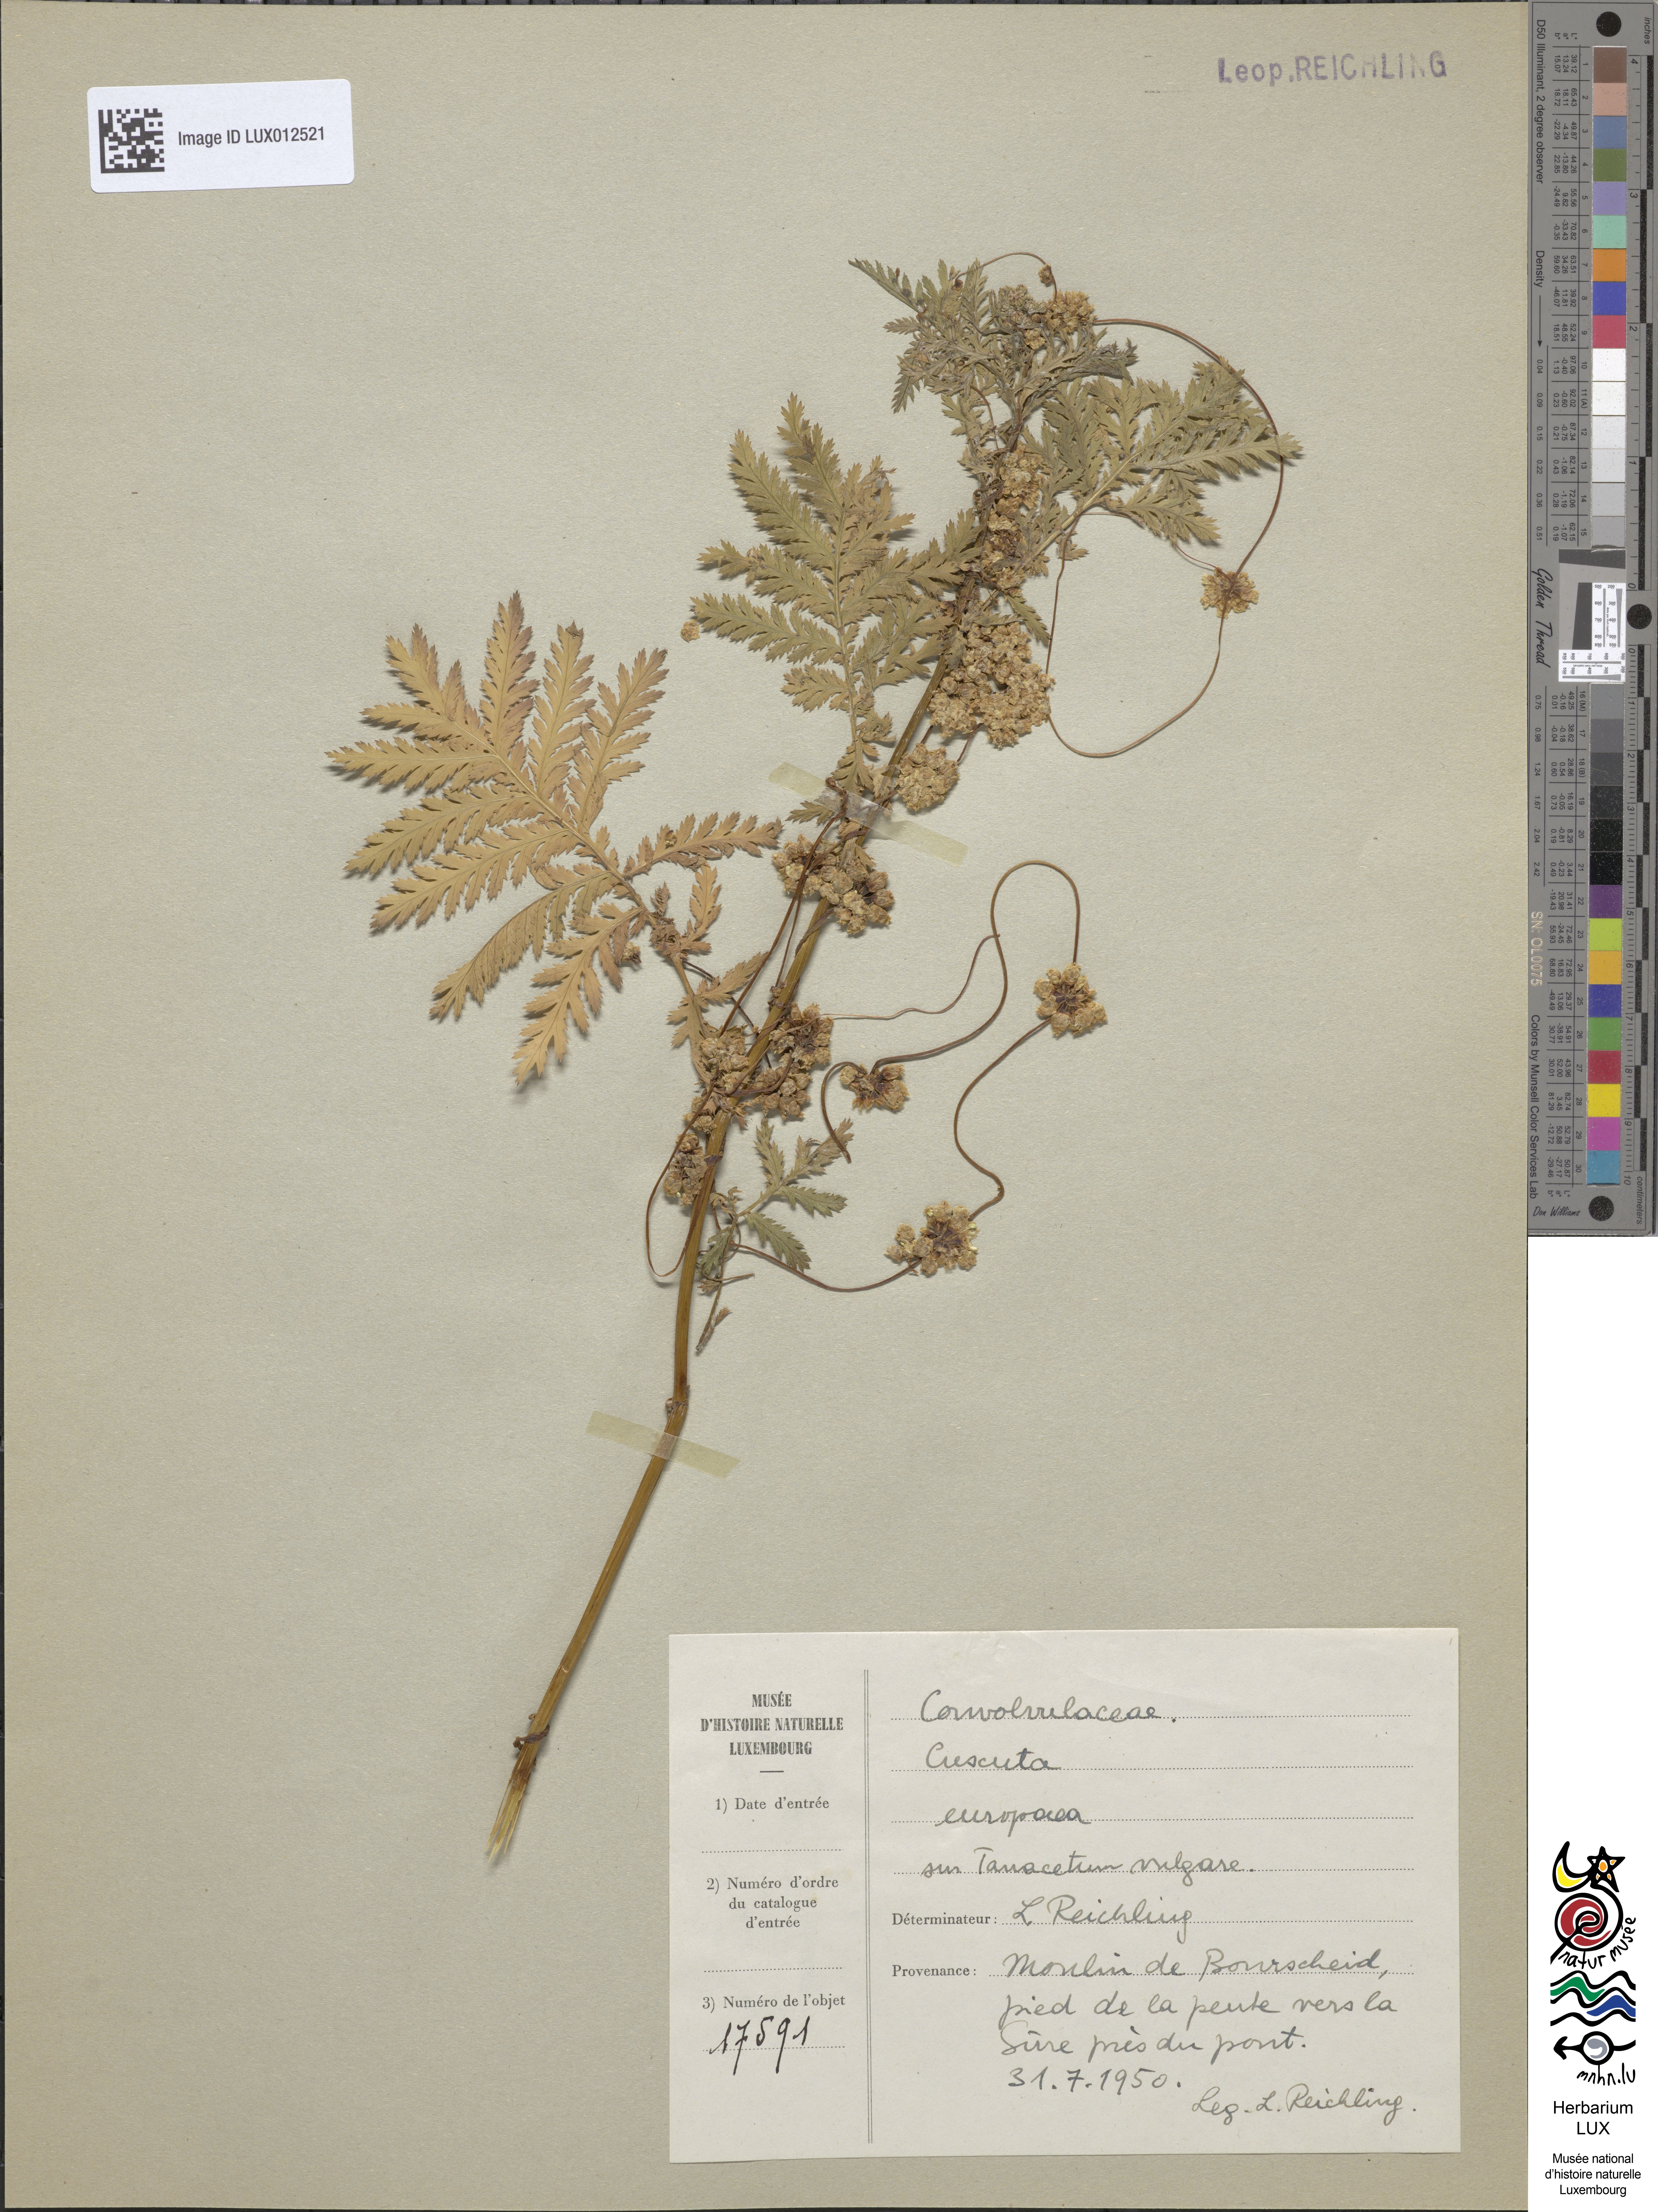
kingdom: Plantae
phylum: Tracheophyta
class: Magnoliopsida
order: Solanales
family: Convolvulaceae
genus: Cuscuta
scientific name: Cuscuta europaea
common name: Greater dodder
